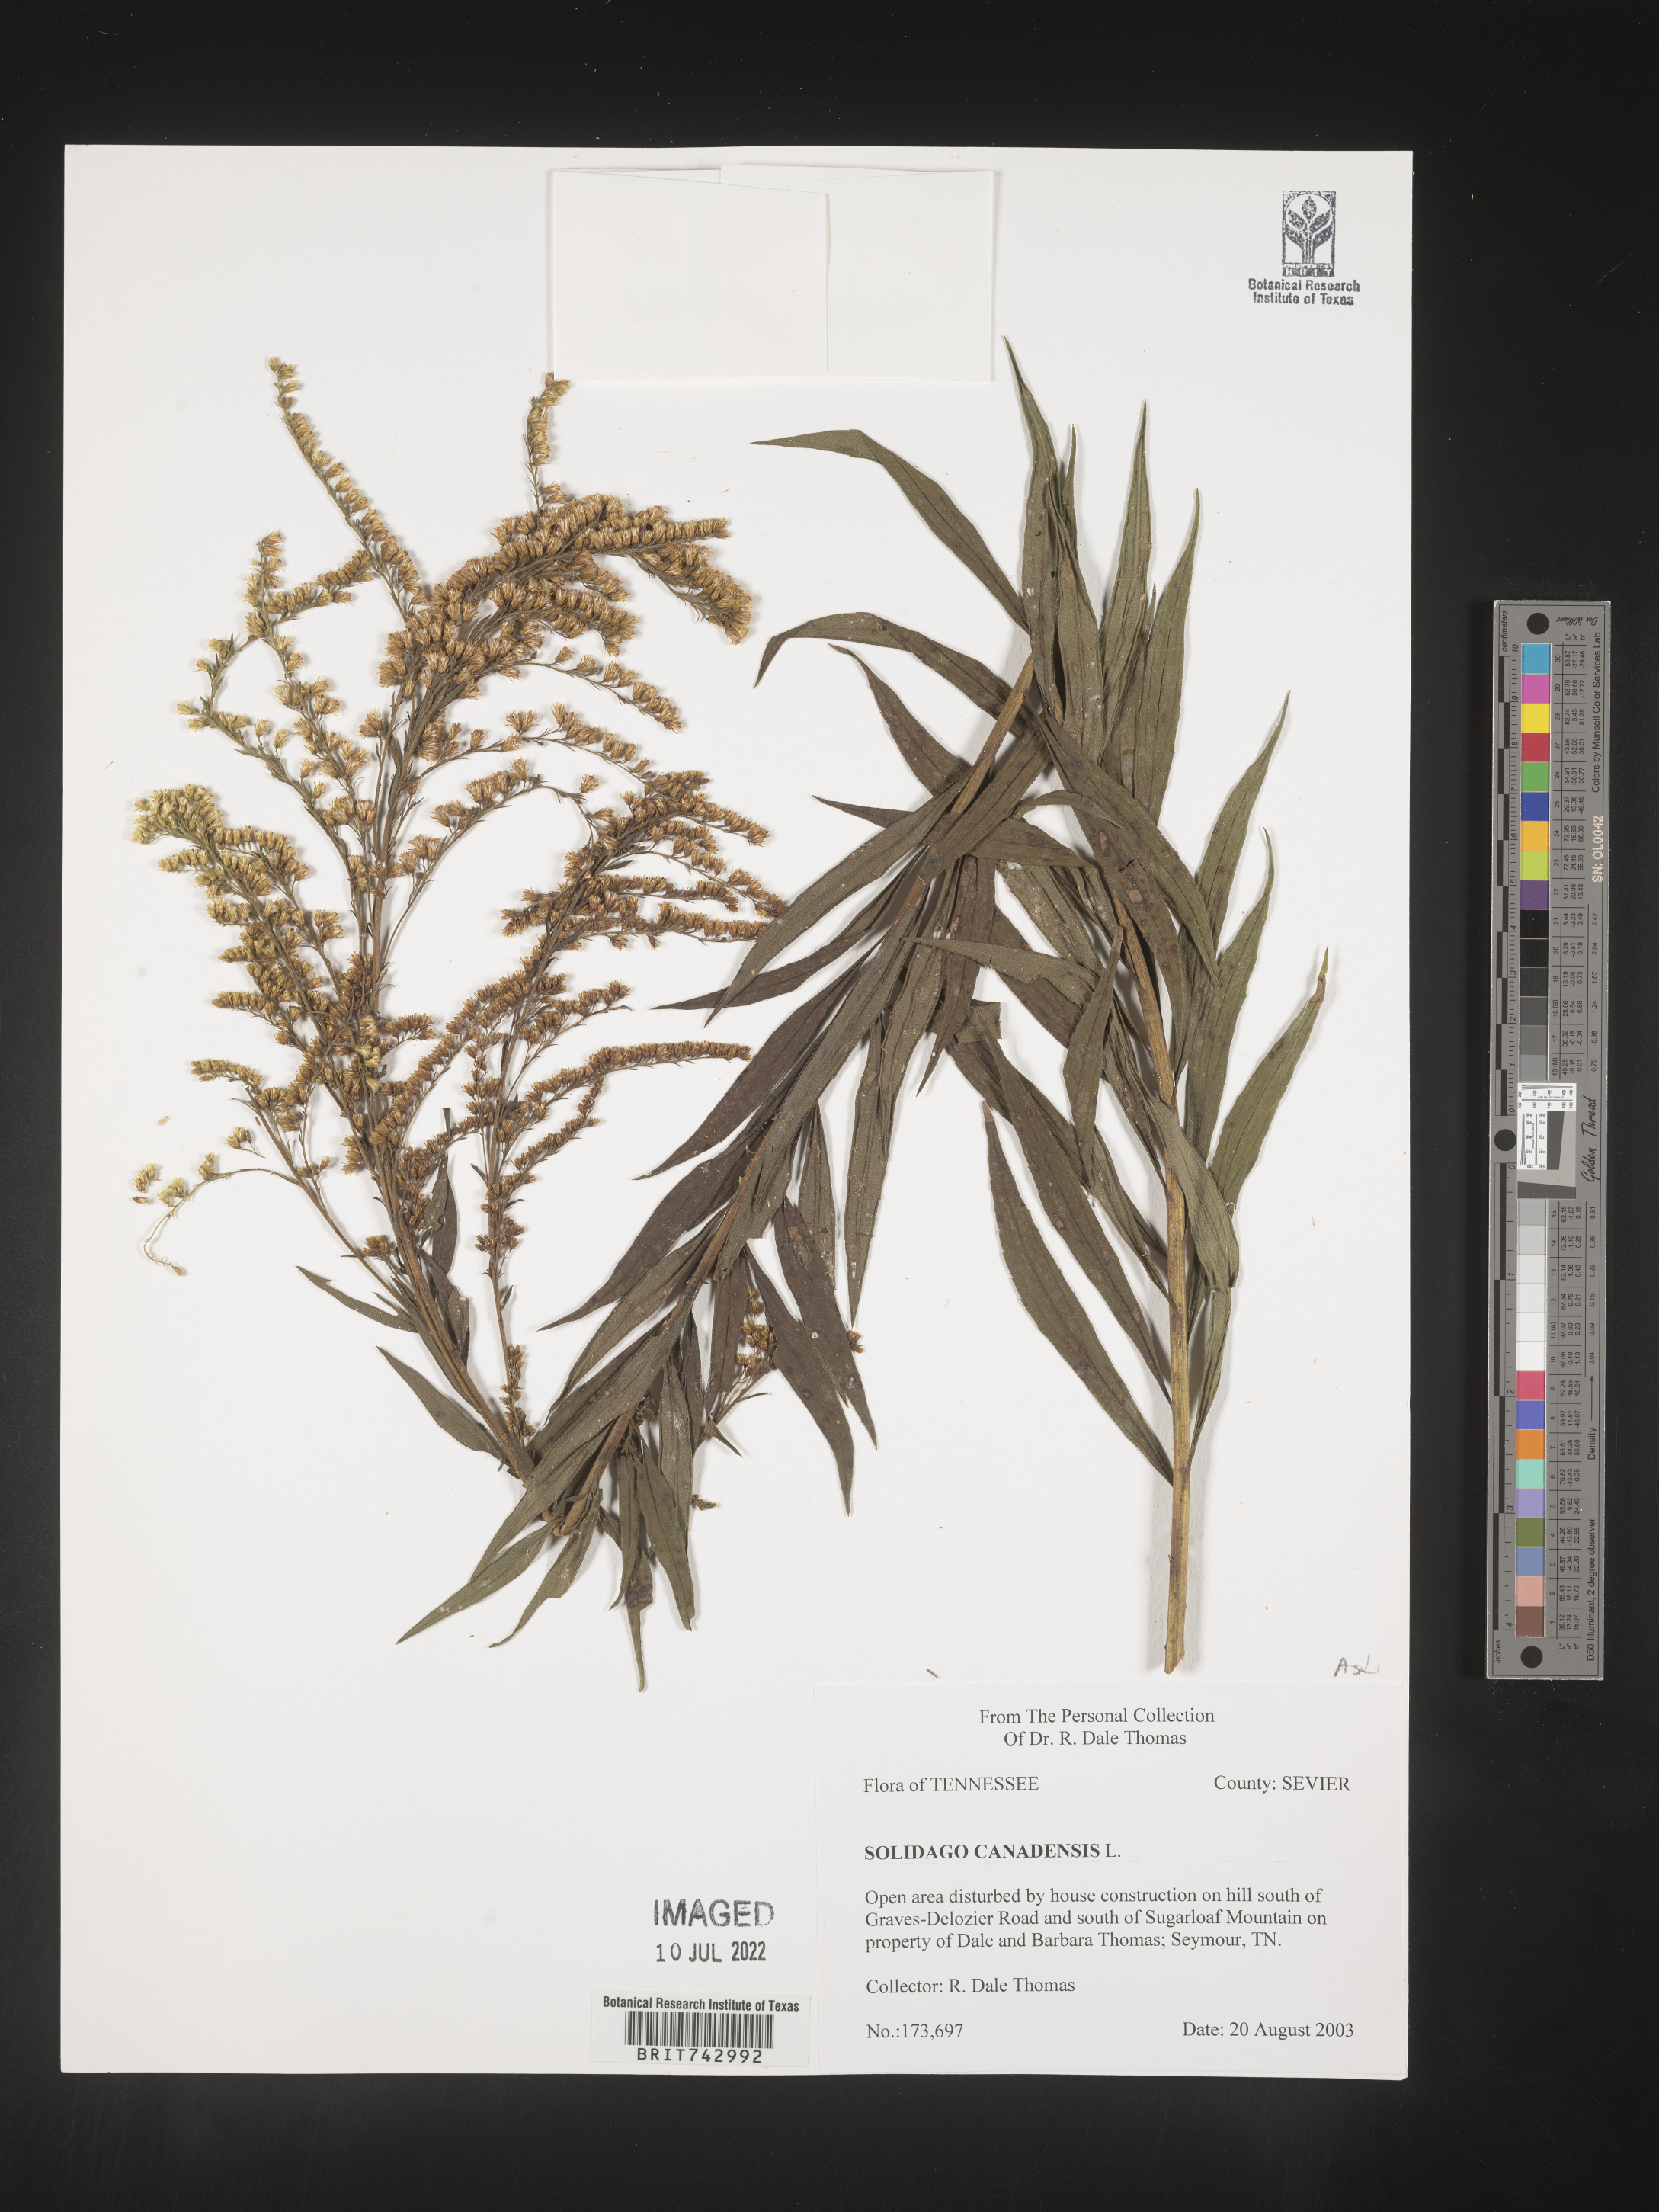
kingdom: Plantae
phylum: Tracheophyta
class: Magnoliopsida
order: Asterales
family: Asteraceae
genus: Solidago
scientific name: Solidago altissima
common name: Late goldenrod
